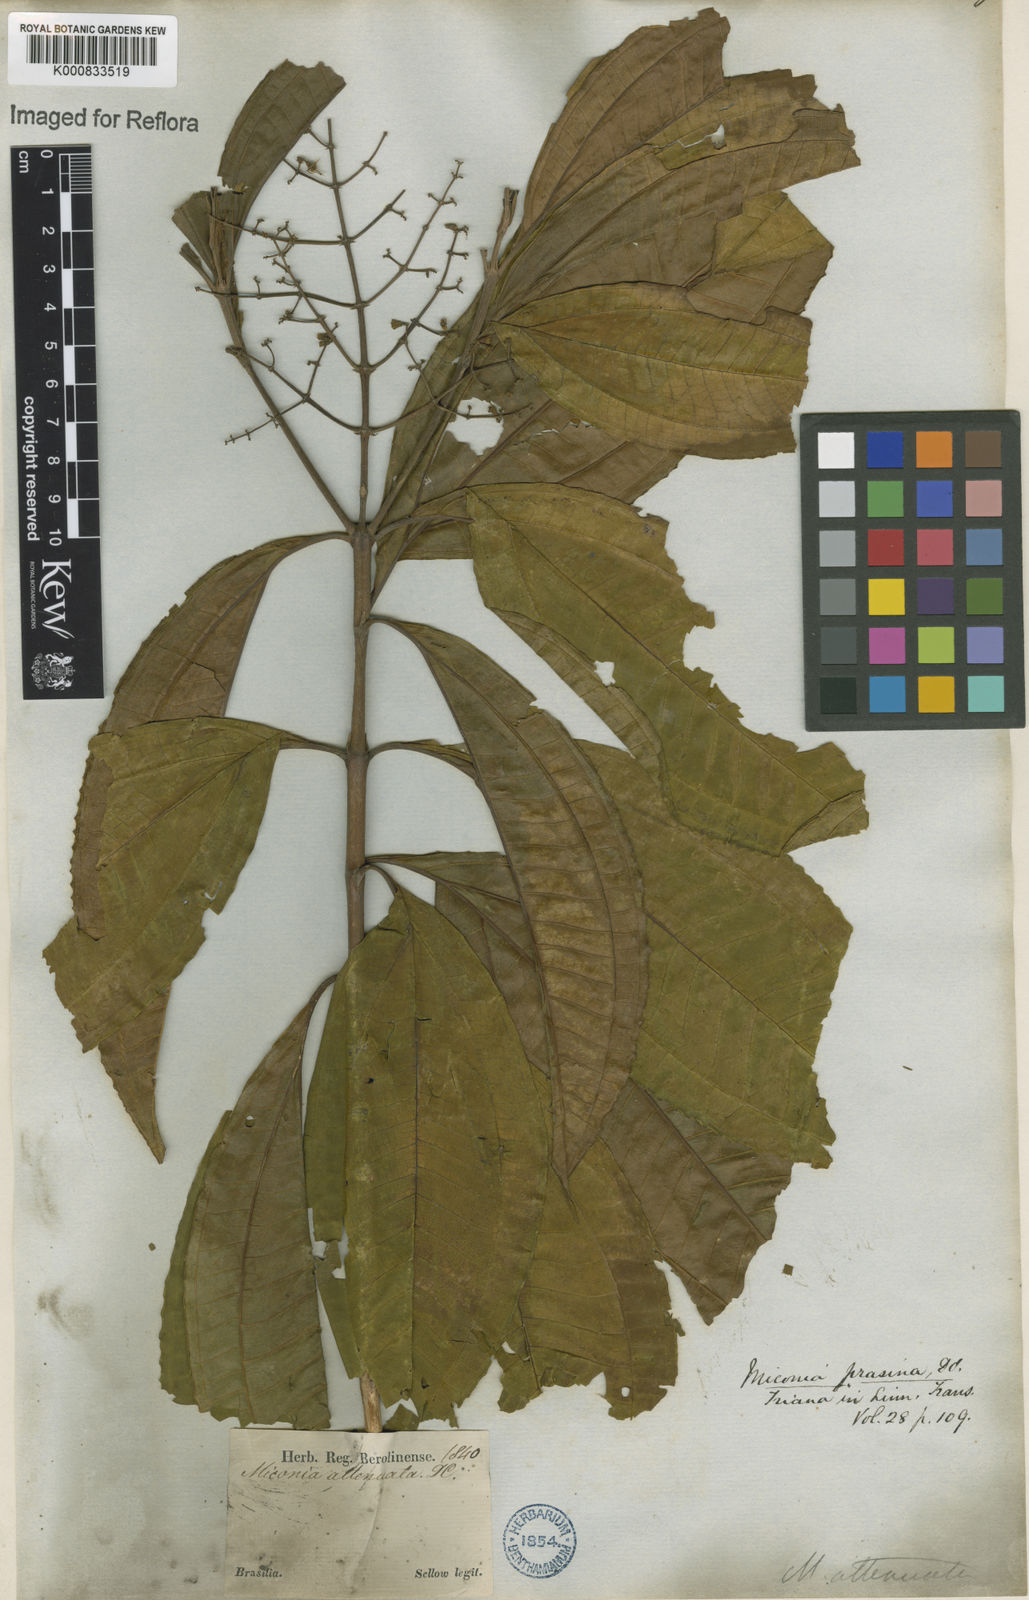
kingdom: Plantae
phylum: Tracheophyta
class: Magnoliopsida
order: Myrtales
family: Melastomataceae
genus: Miconia
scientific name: Miconia prasina
